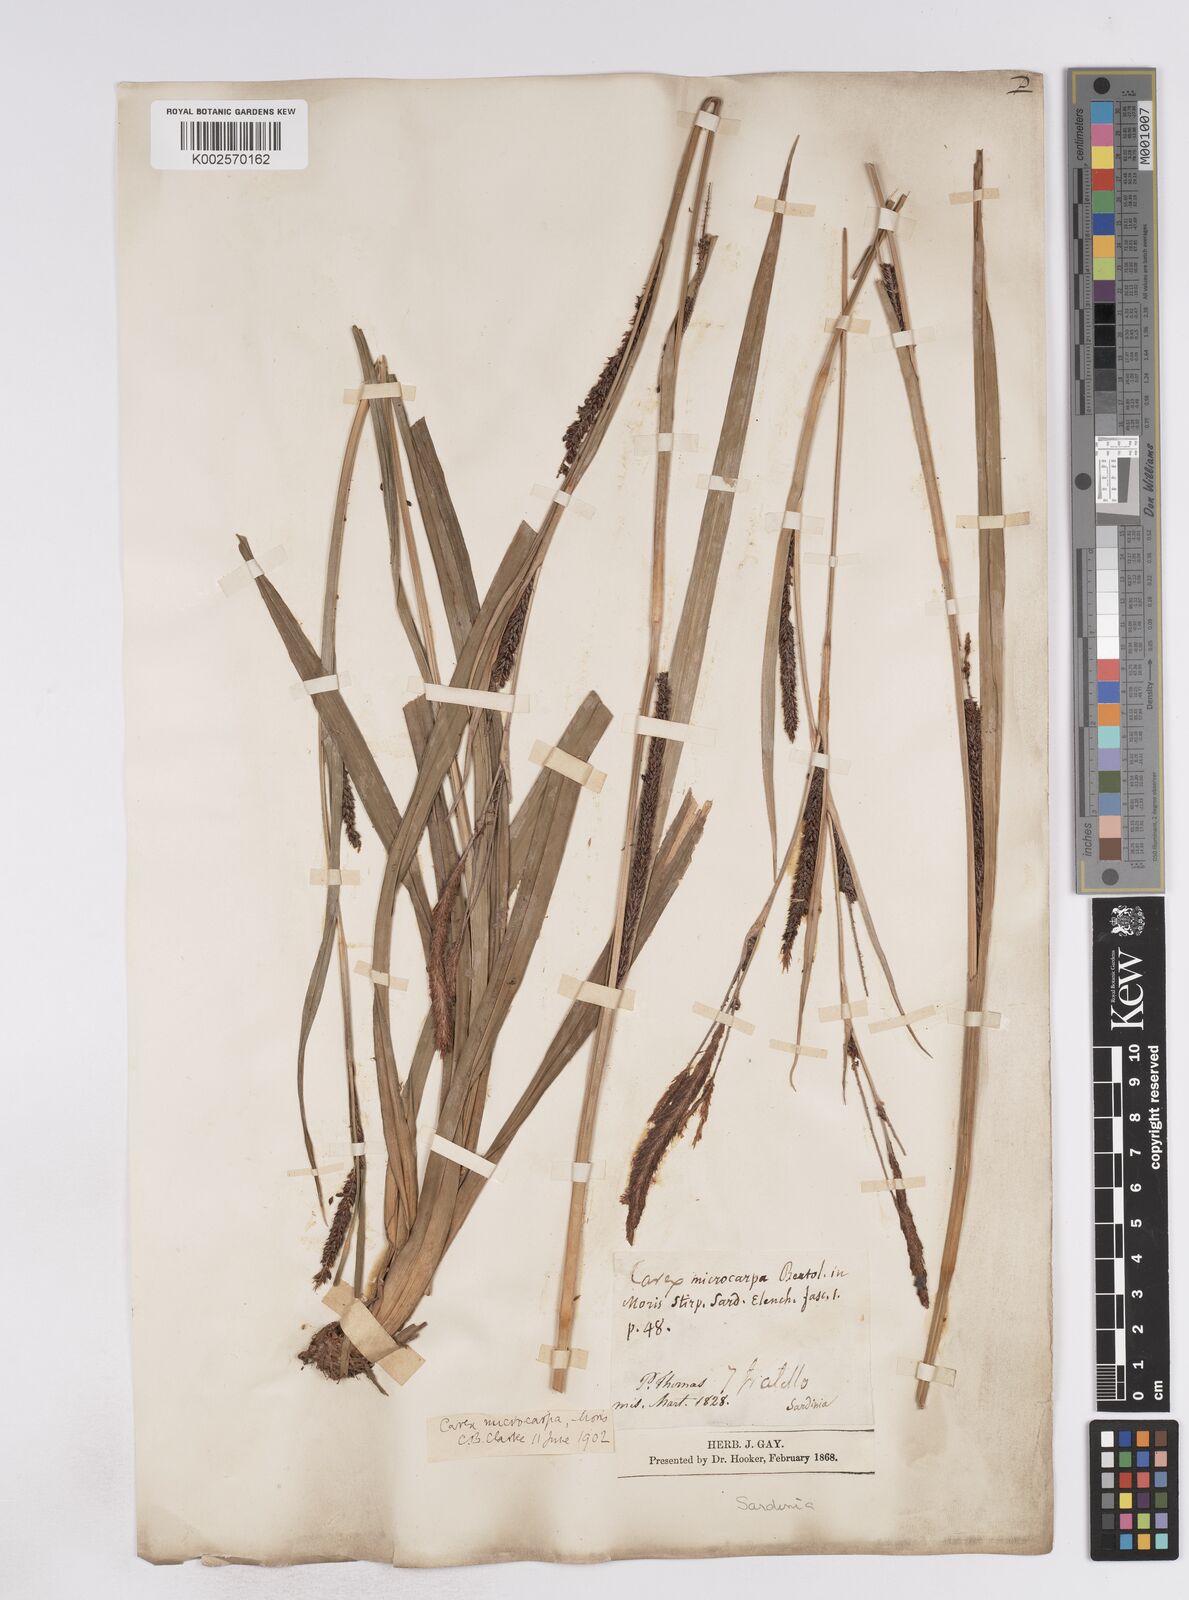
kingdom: Plantae
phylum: Tracheophyta
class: Liliopsida
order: Poales
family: Cyperaceae
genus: Carex
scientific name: Carex microcarpa
